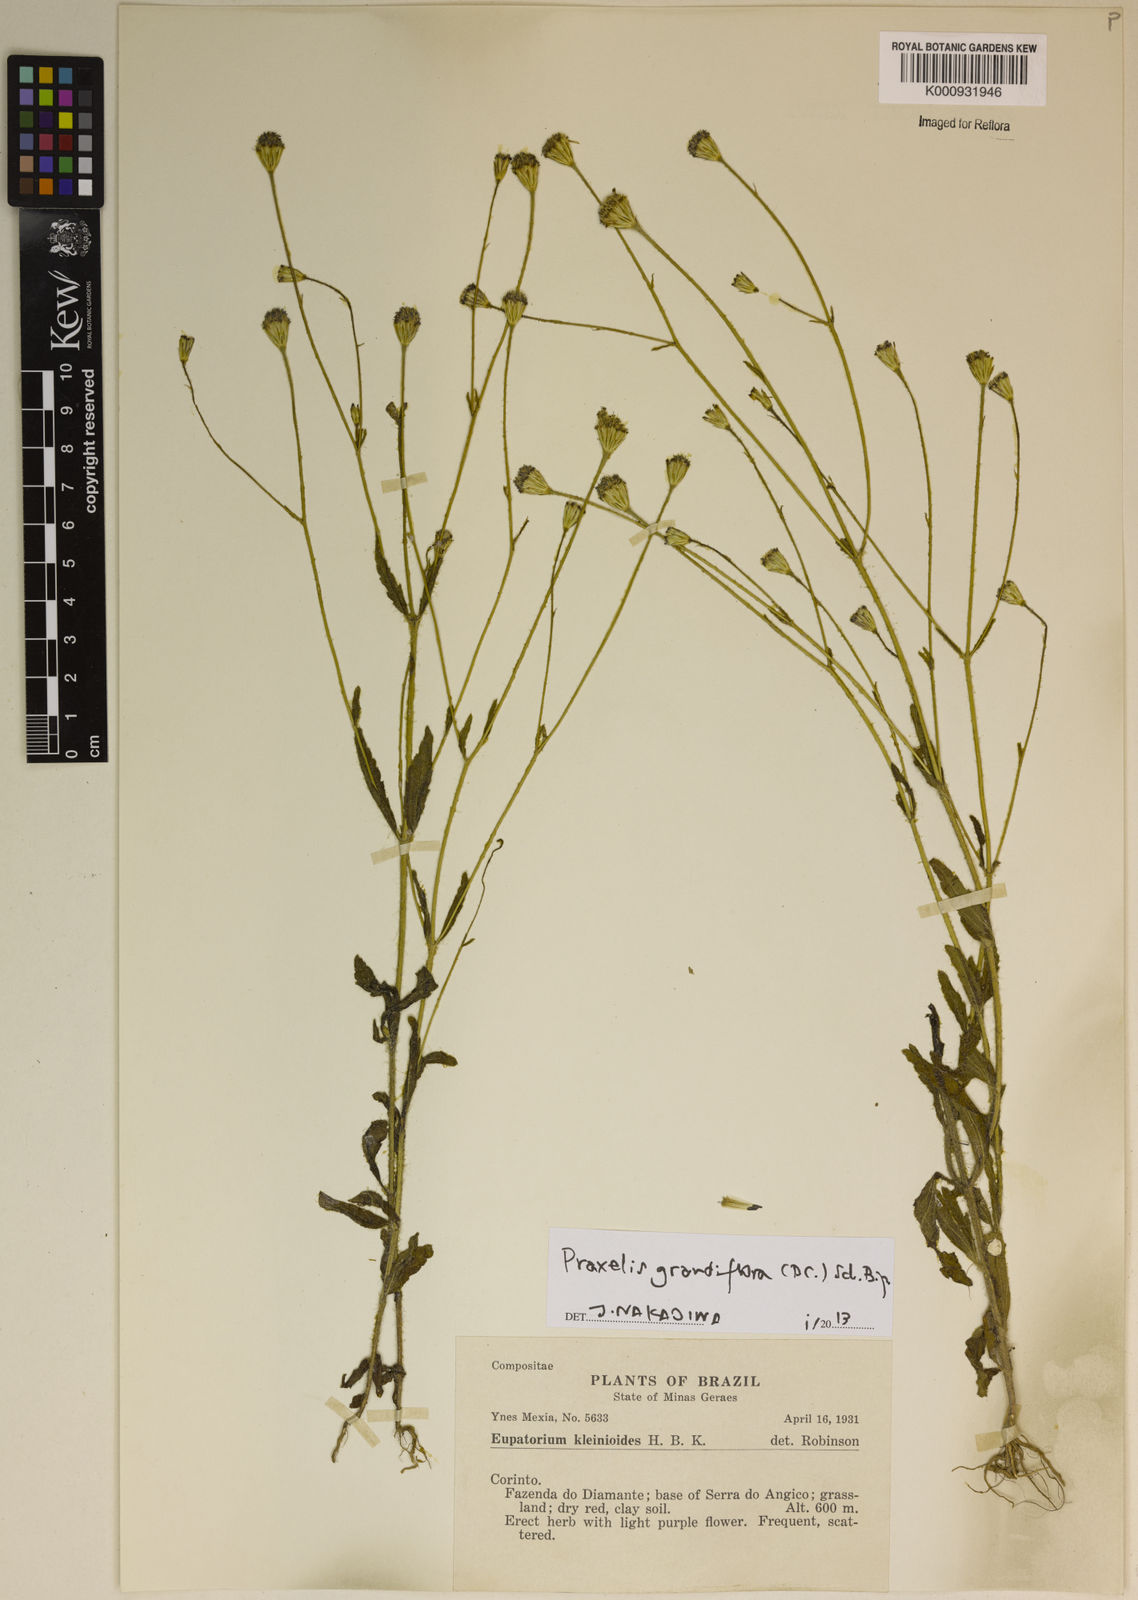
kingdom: Plantae
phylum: Tracheophyta
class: Magnoliopsida
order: Asterales
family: Asteraceae
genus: Praxelis
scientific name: Praxelis grandiflora
